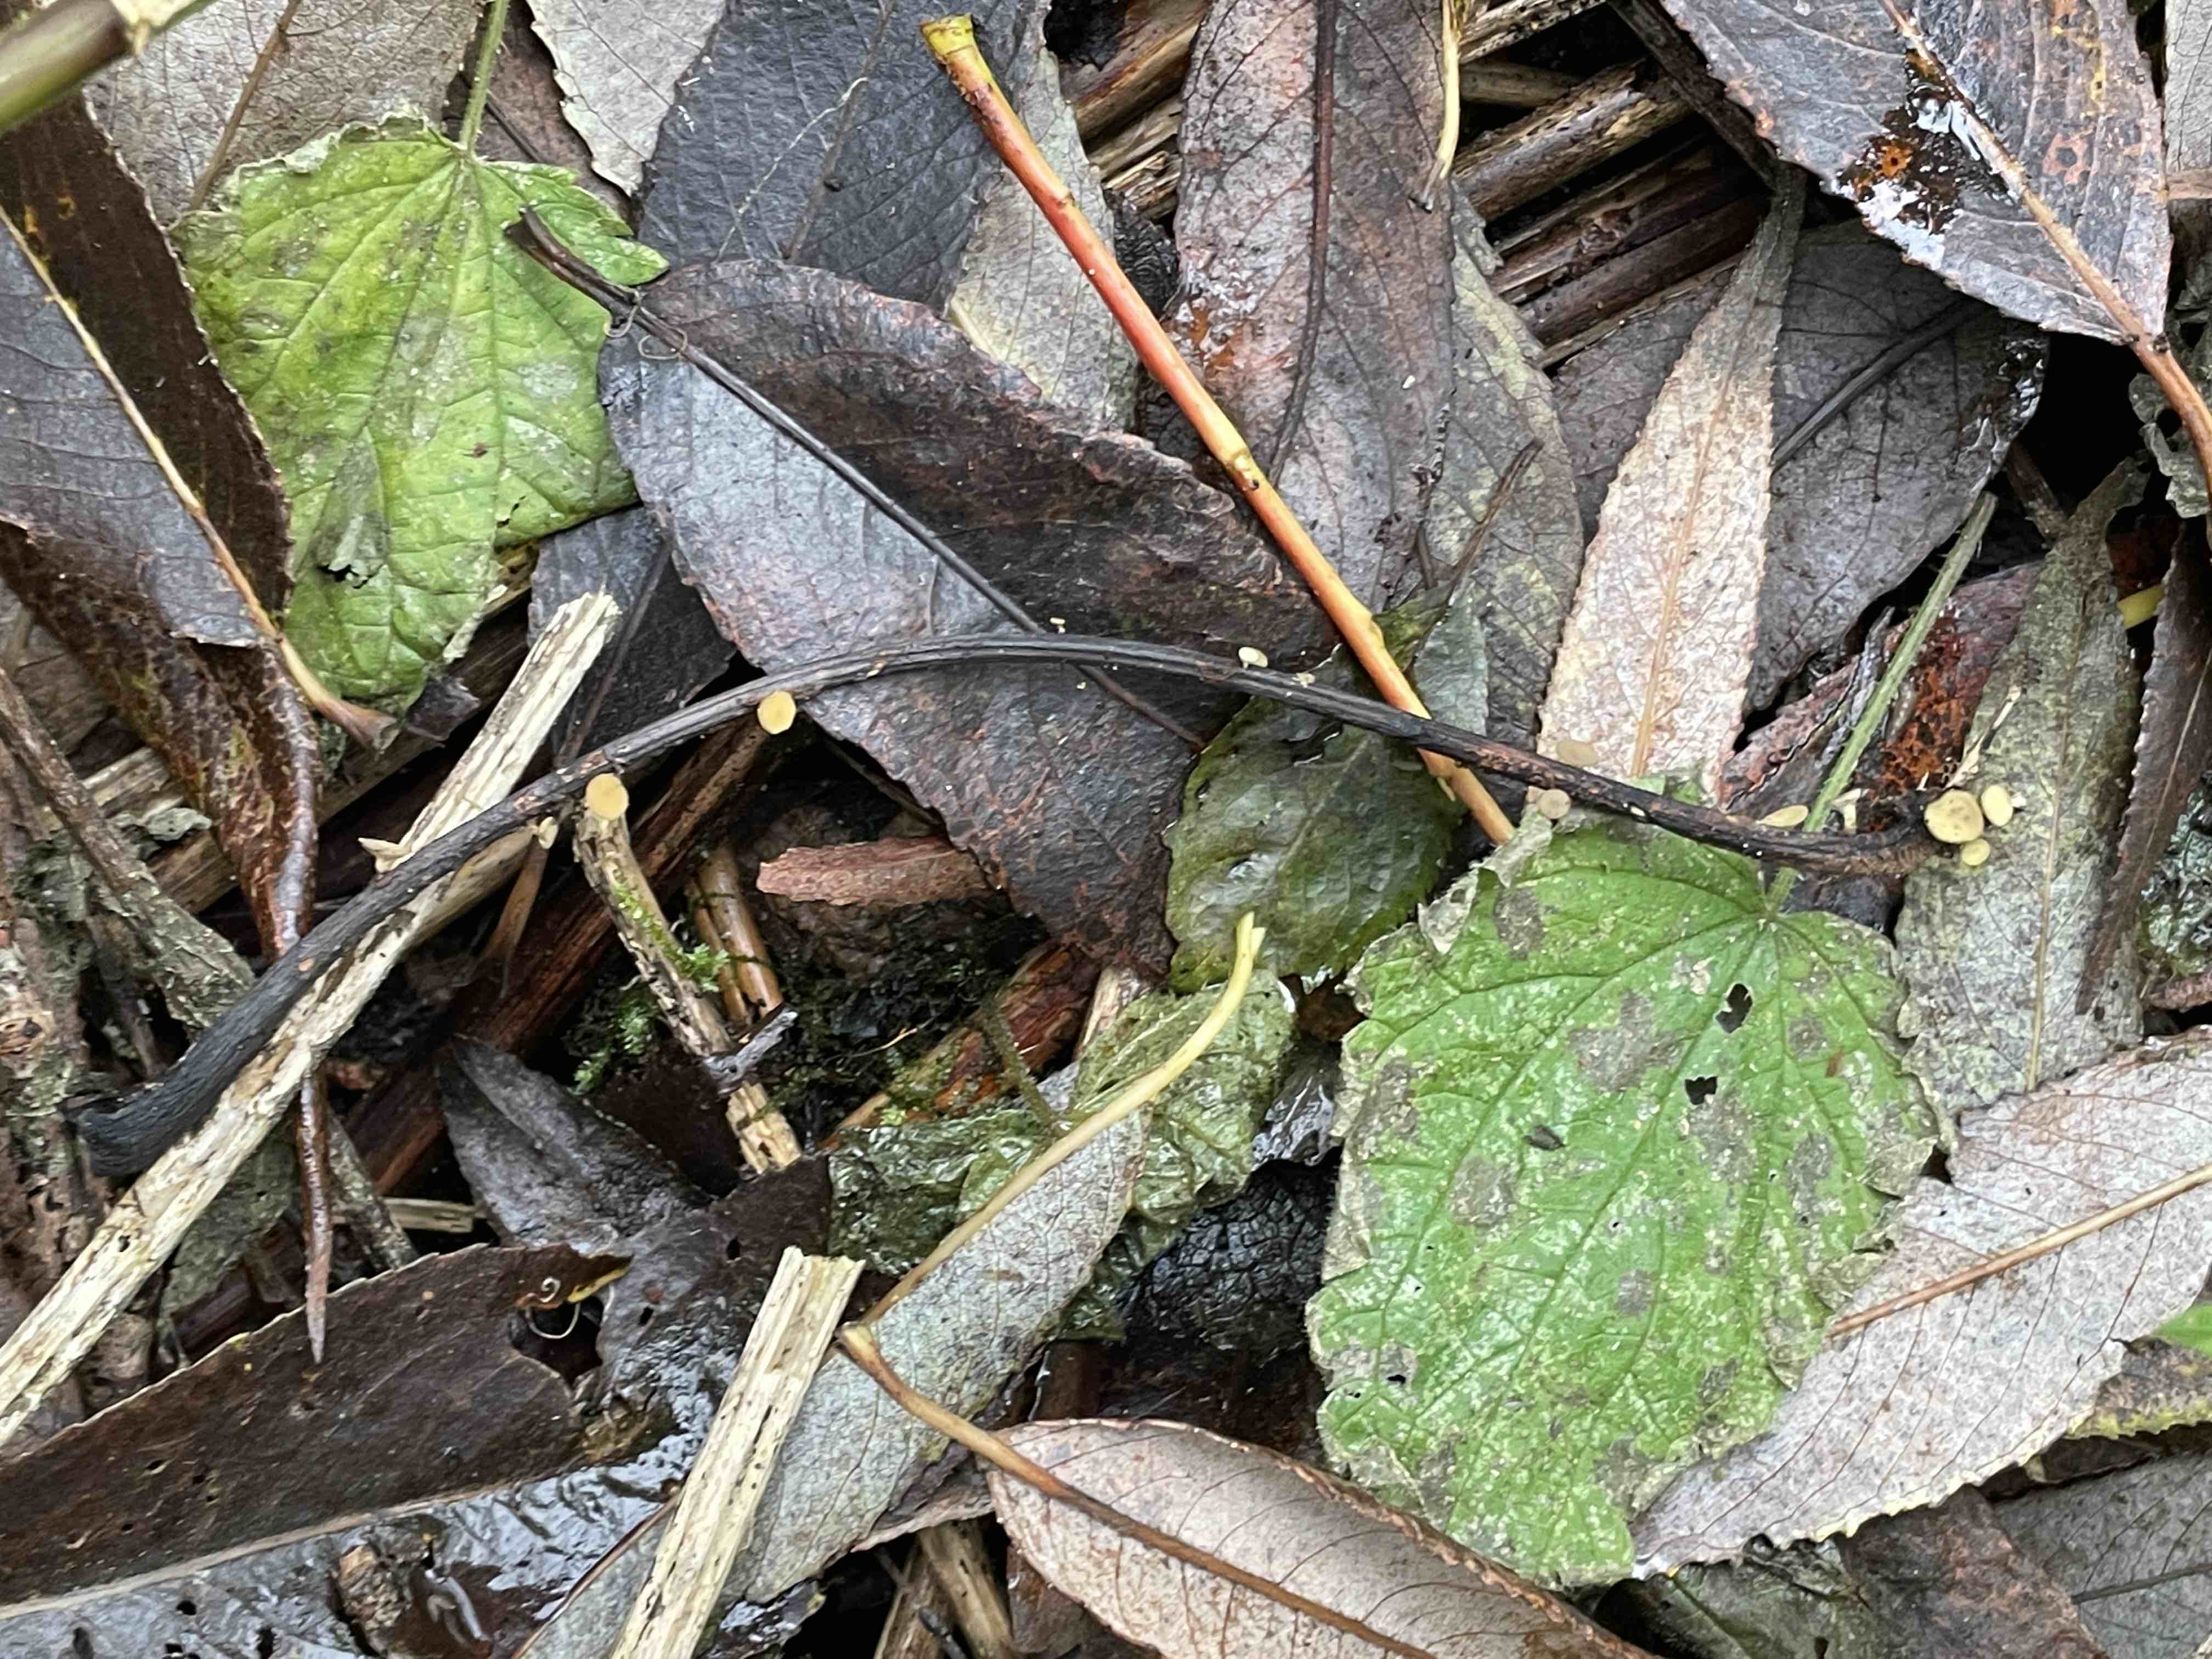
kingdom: Fungi
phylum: Ascomycota
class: Leotiomycetes
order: Helotiales
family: Rutstroemiaceae
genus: Lanzia
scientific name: Lanzia luteovirescens
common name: olivengul brunskive
